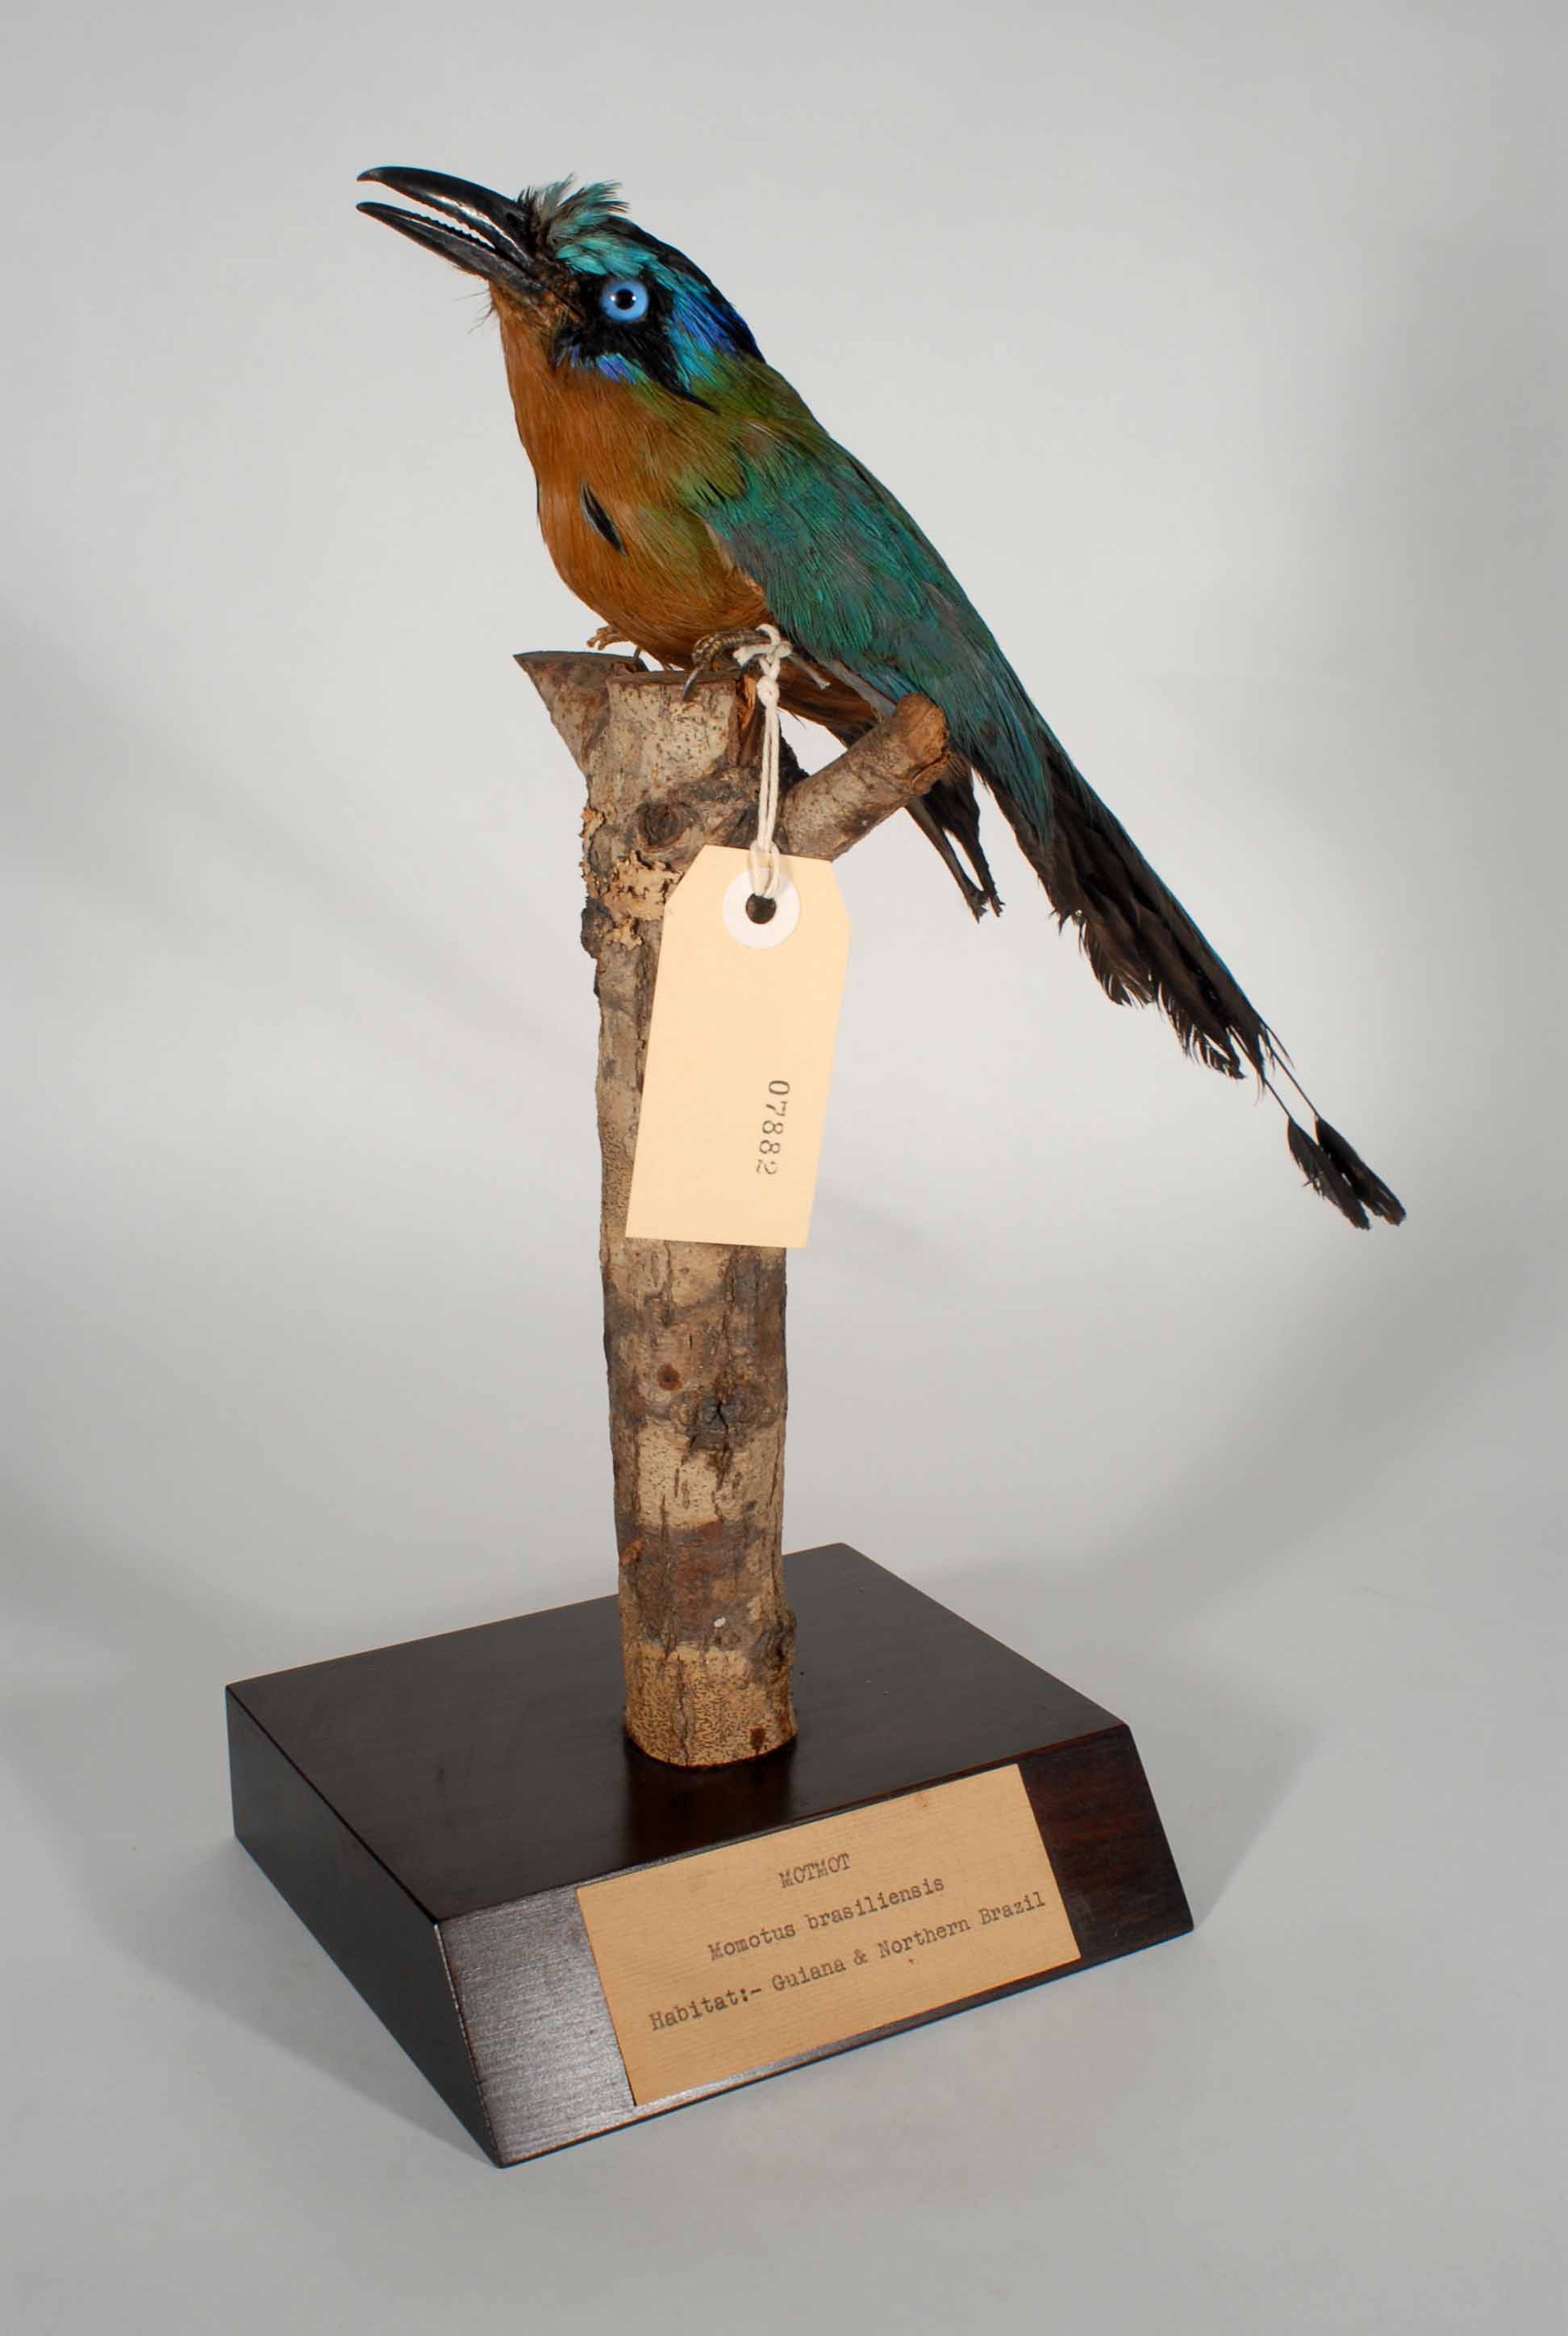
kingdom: Animalia
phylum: Chordata
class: Aves
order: Coraciiformes
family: Momotidae
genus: Momotus
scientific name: Momotus momota
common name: Amazonian motmot
